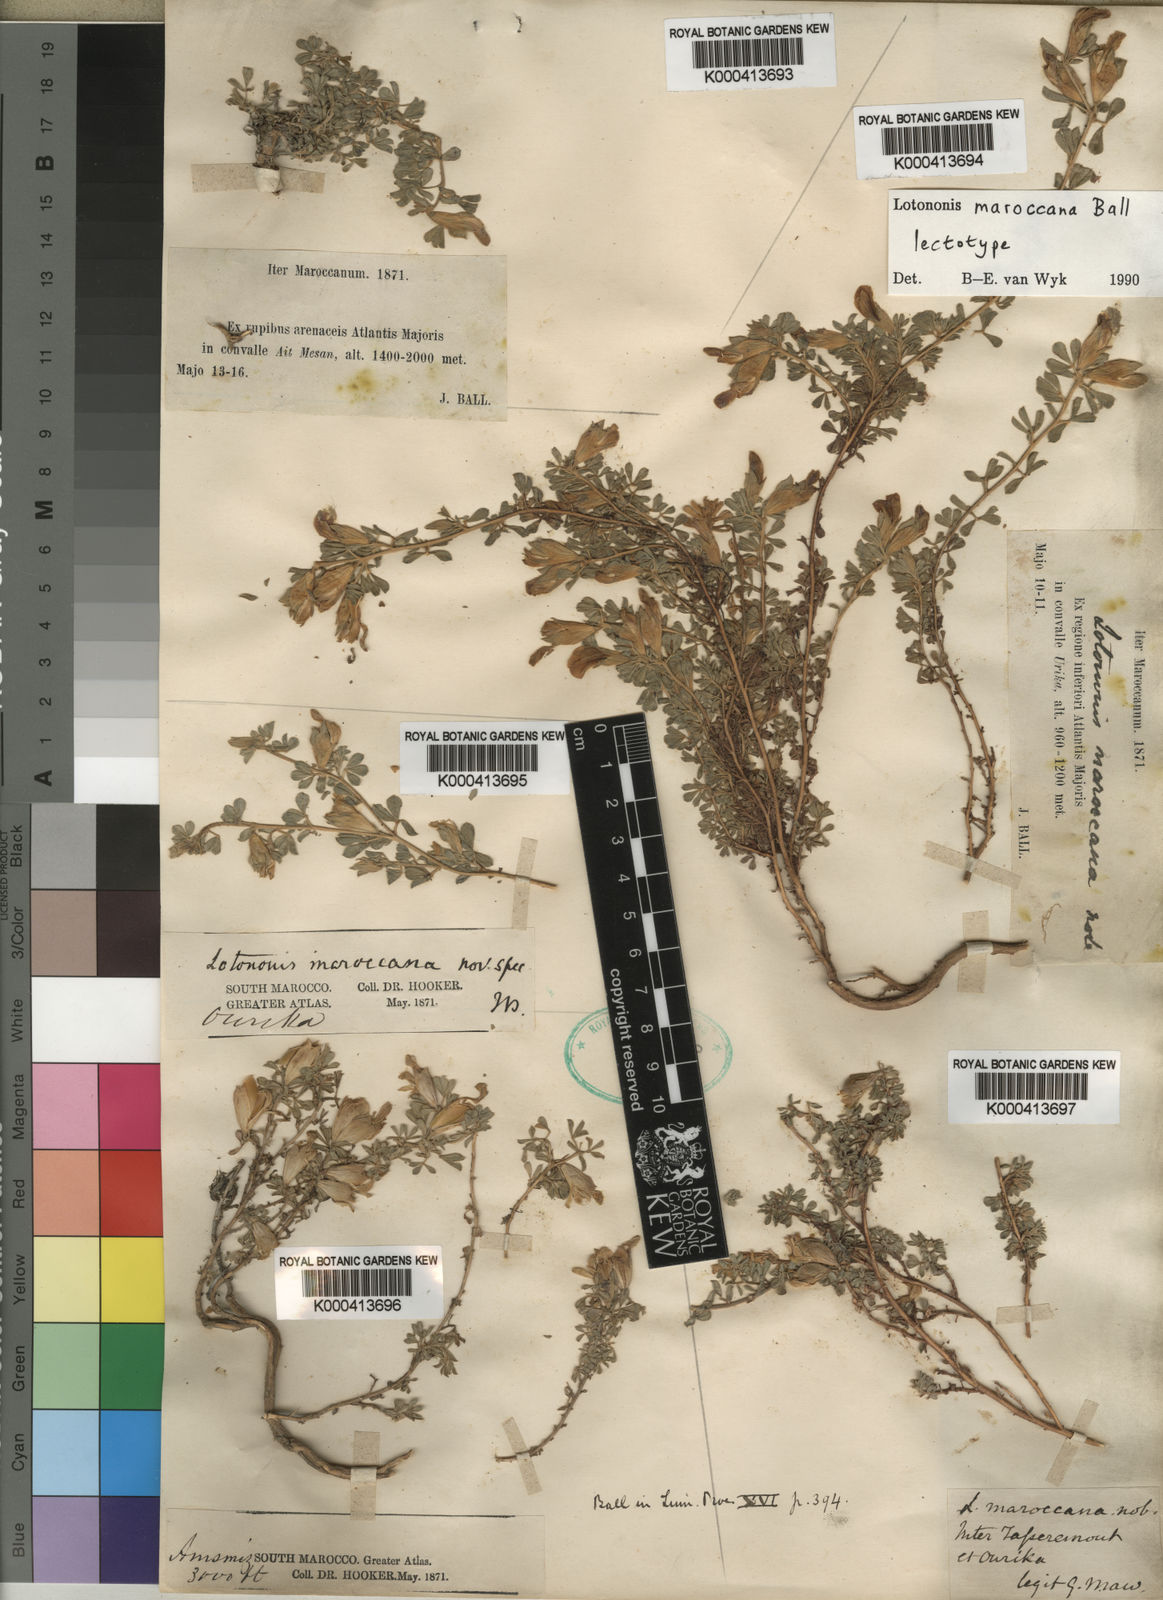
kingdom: Plantae
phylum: Tracheophyta
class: Magnoliopsida
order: Fabales
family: Fabaceae
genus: Leobordea
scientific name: Leobordea maroccana
